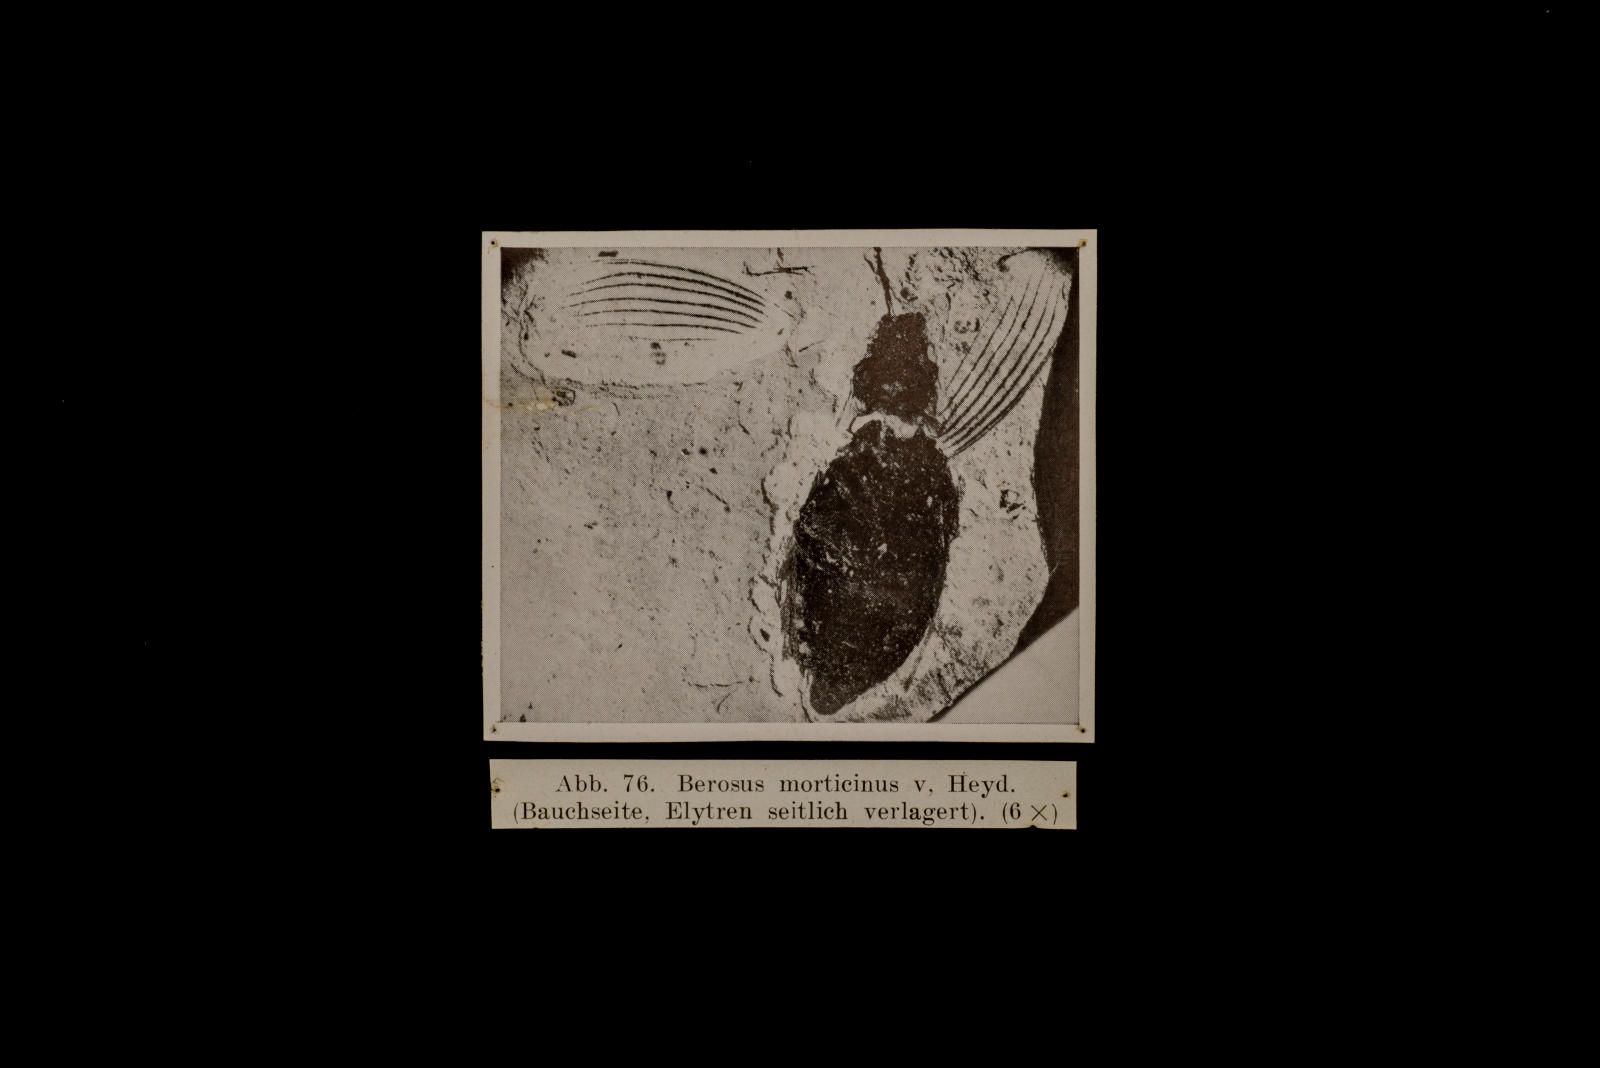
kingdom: Animalia
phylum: Arthropoda
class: Insecta
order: Coleoptera
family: Hydrophilidae
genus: Berosus
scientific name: Berosus morticinus
